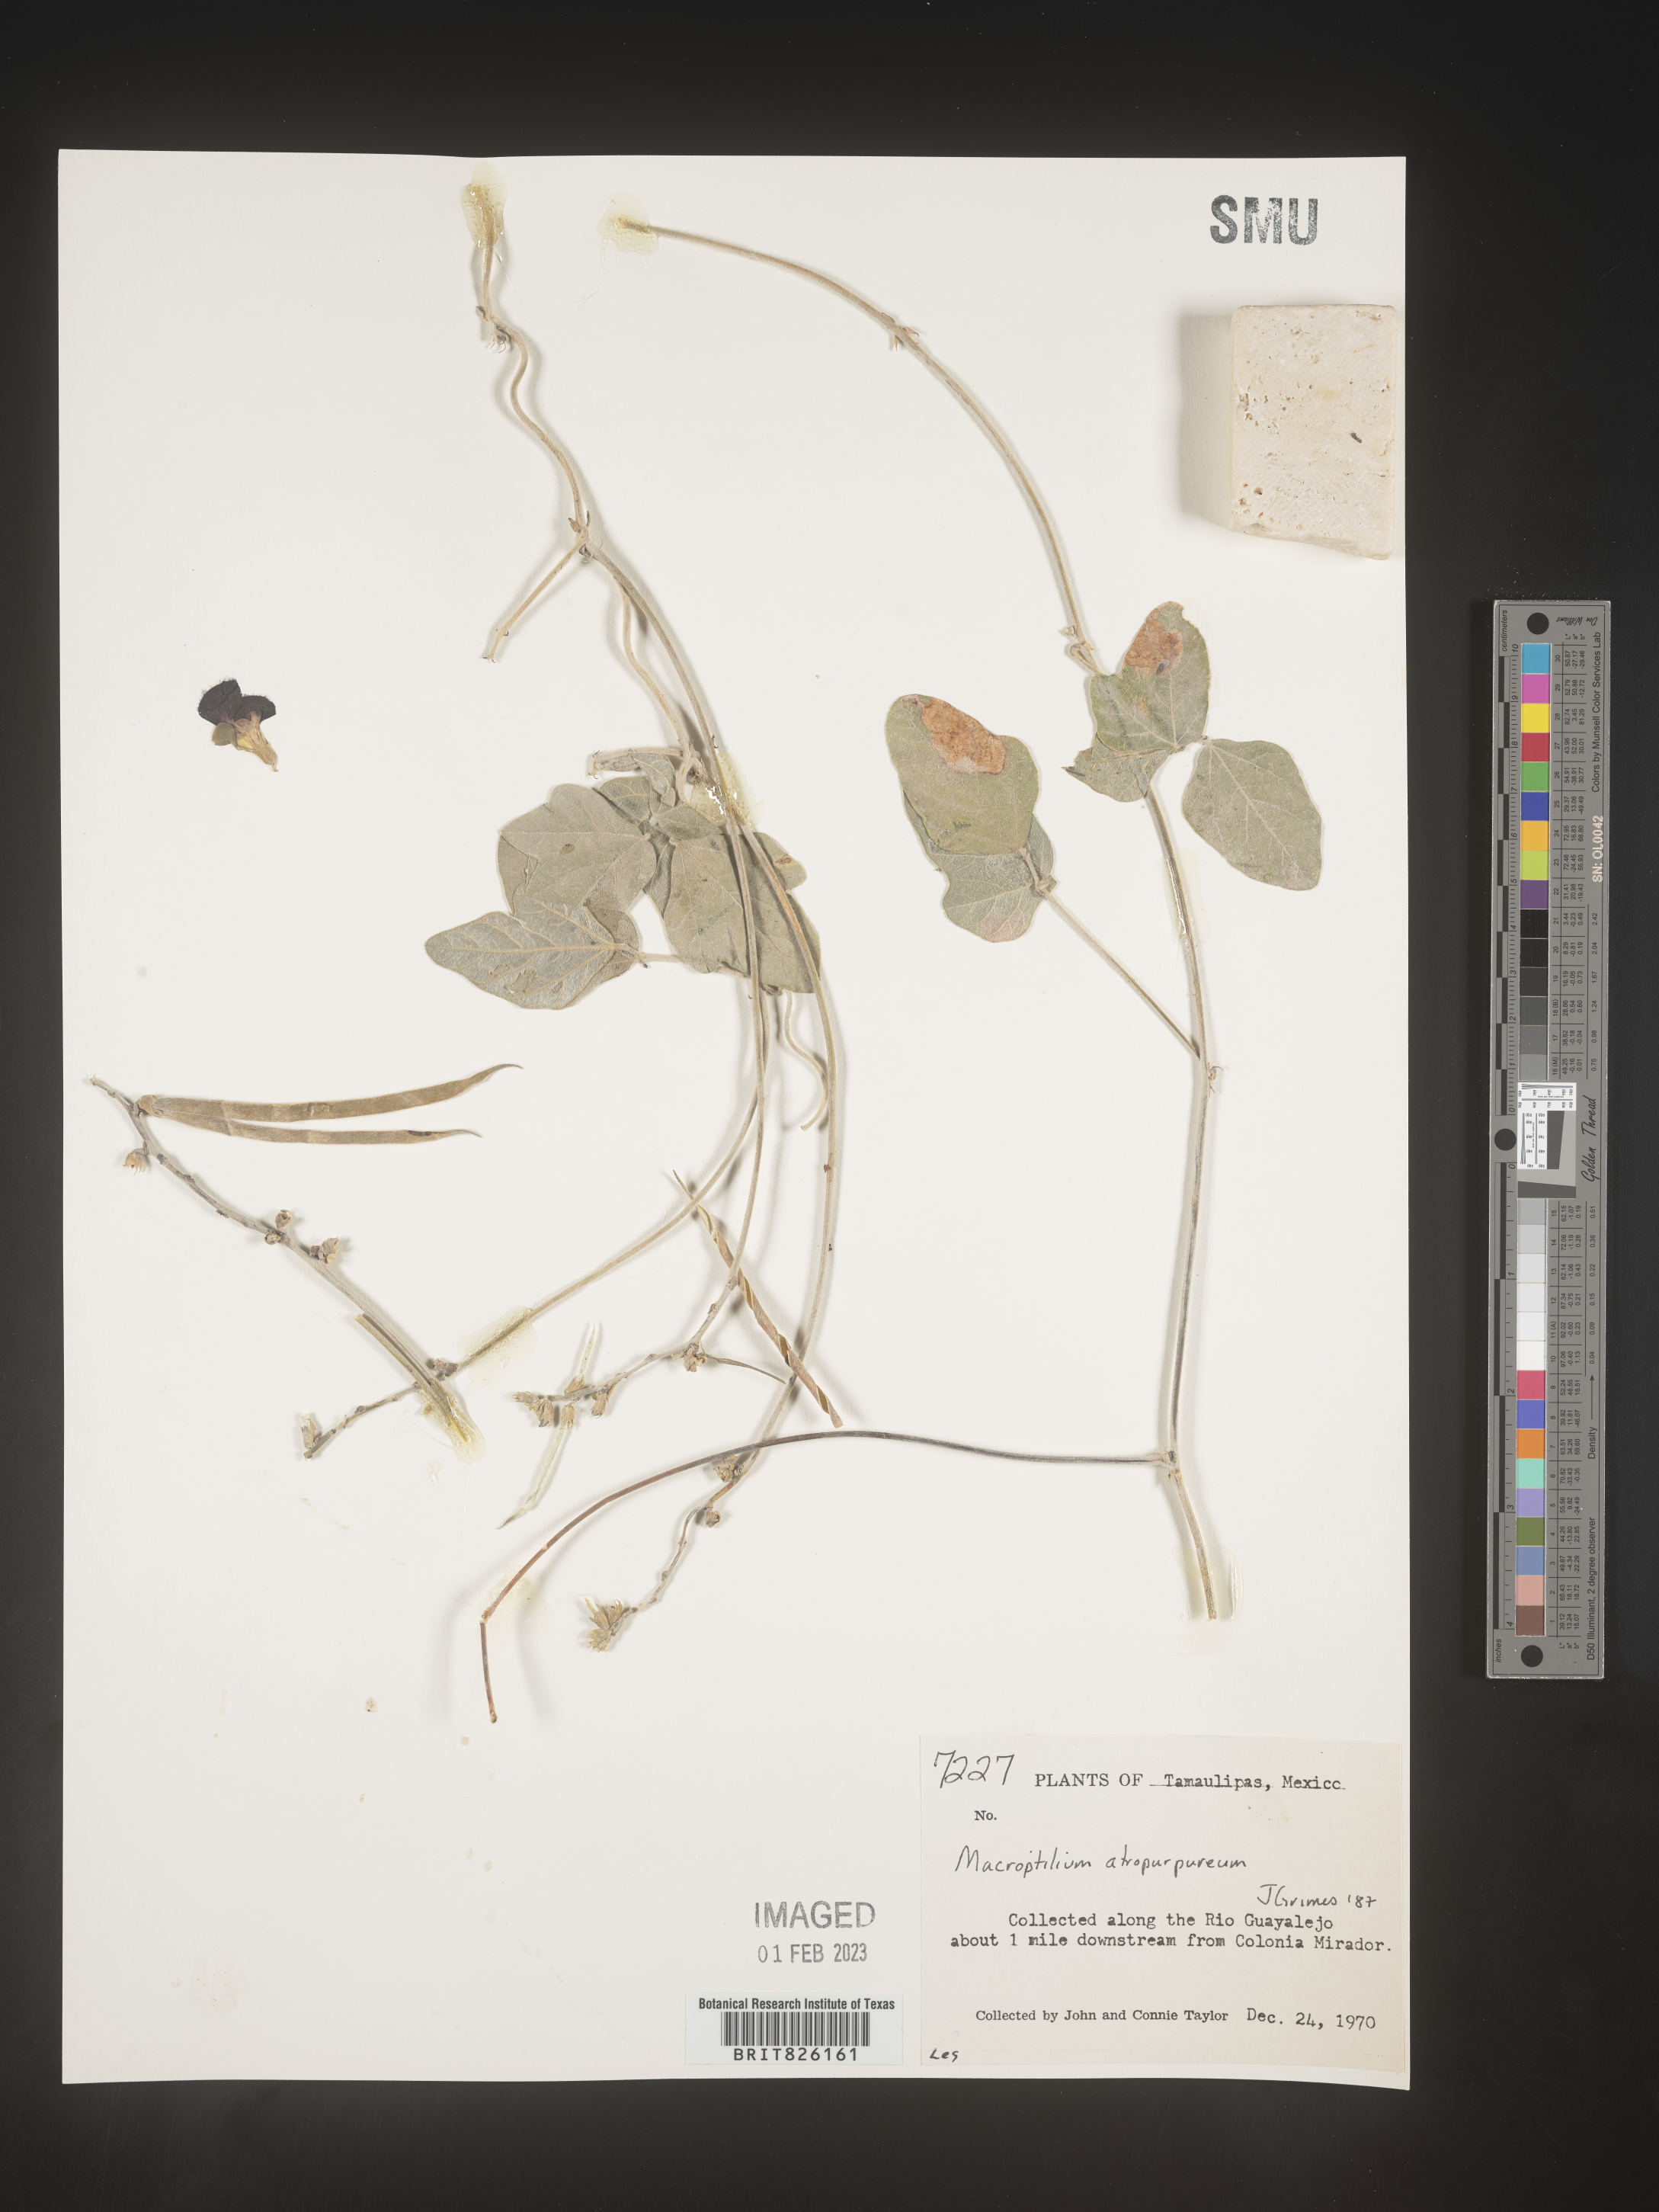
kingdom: Plantae
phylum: Tracheophyta
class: Magnoliopsida
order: Fabales
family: Fabaceae
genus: Macroptilium
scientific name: Macroptilium
